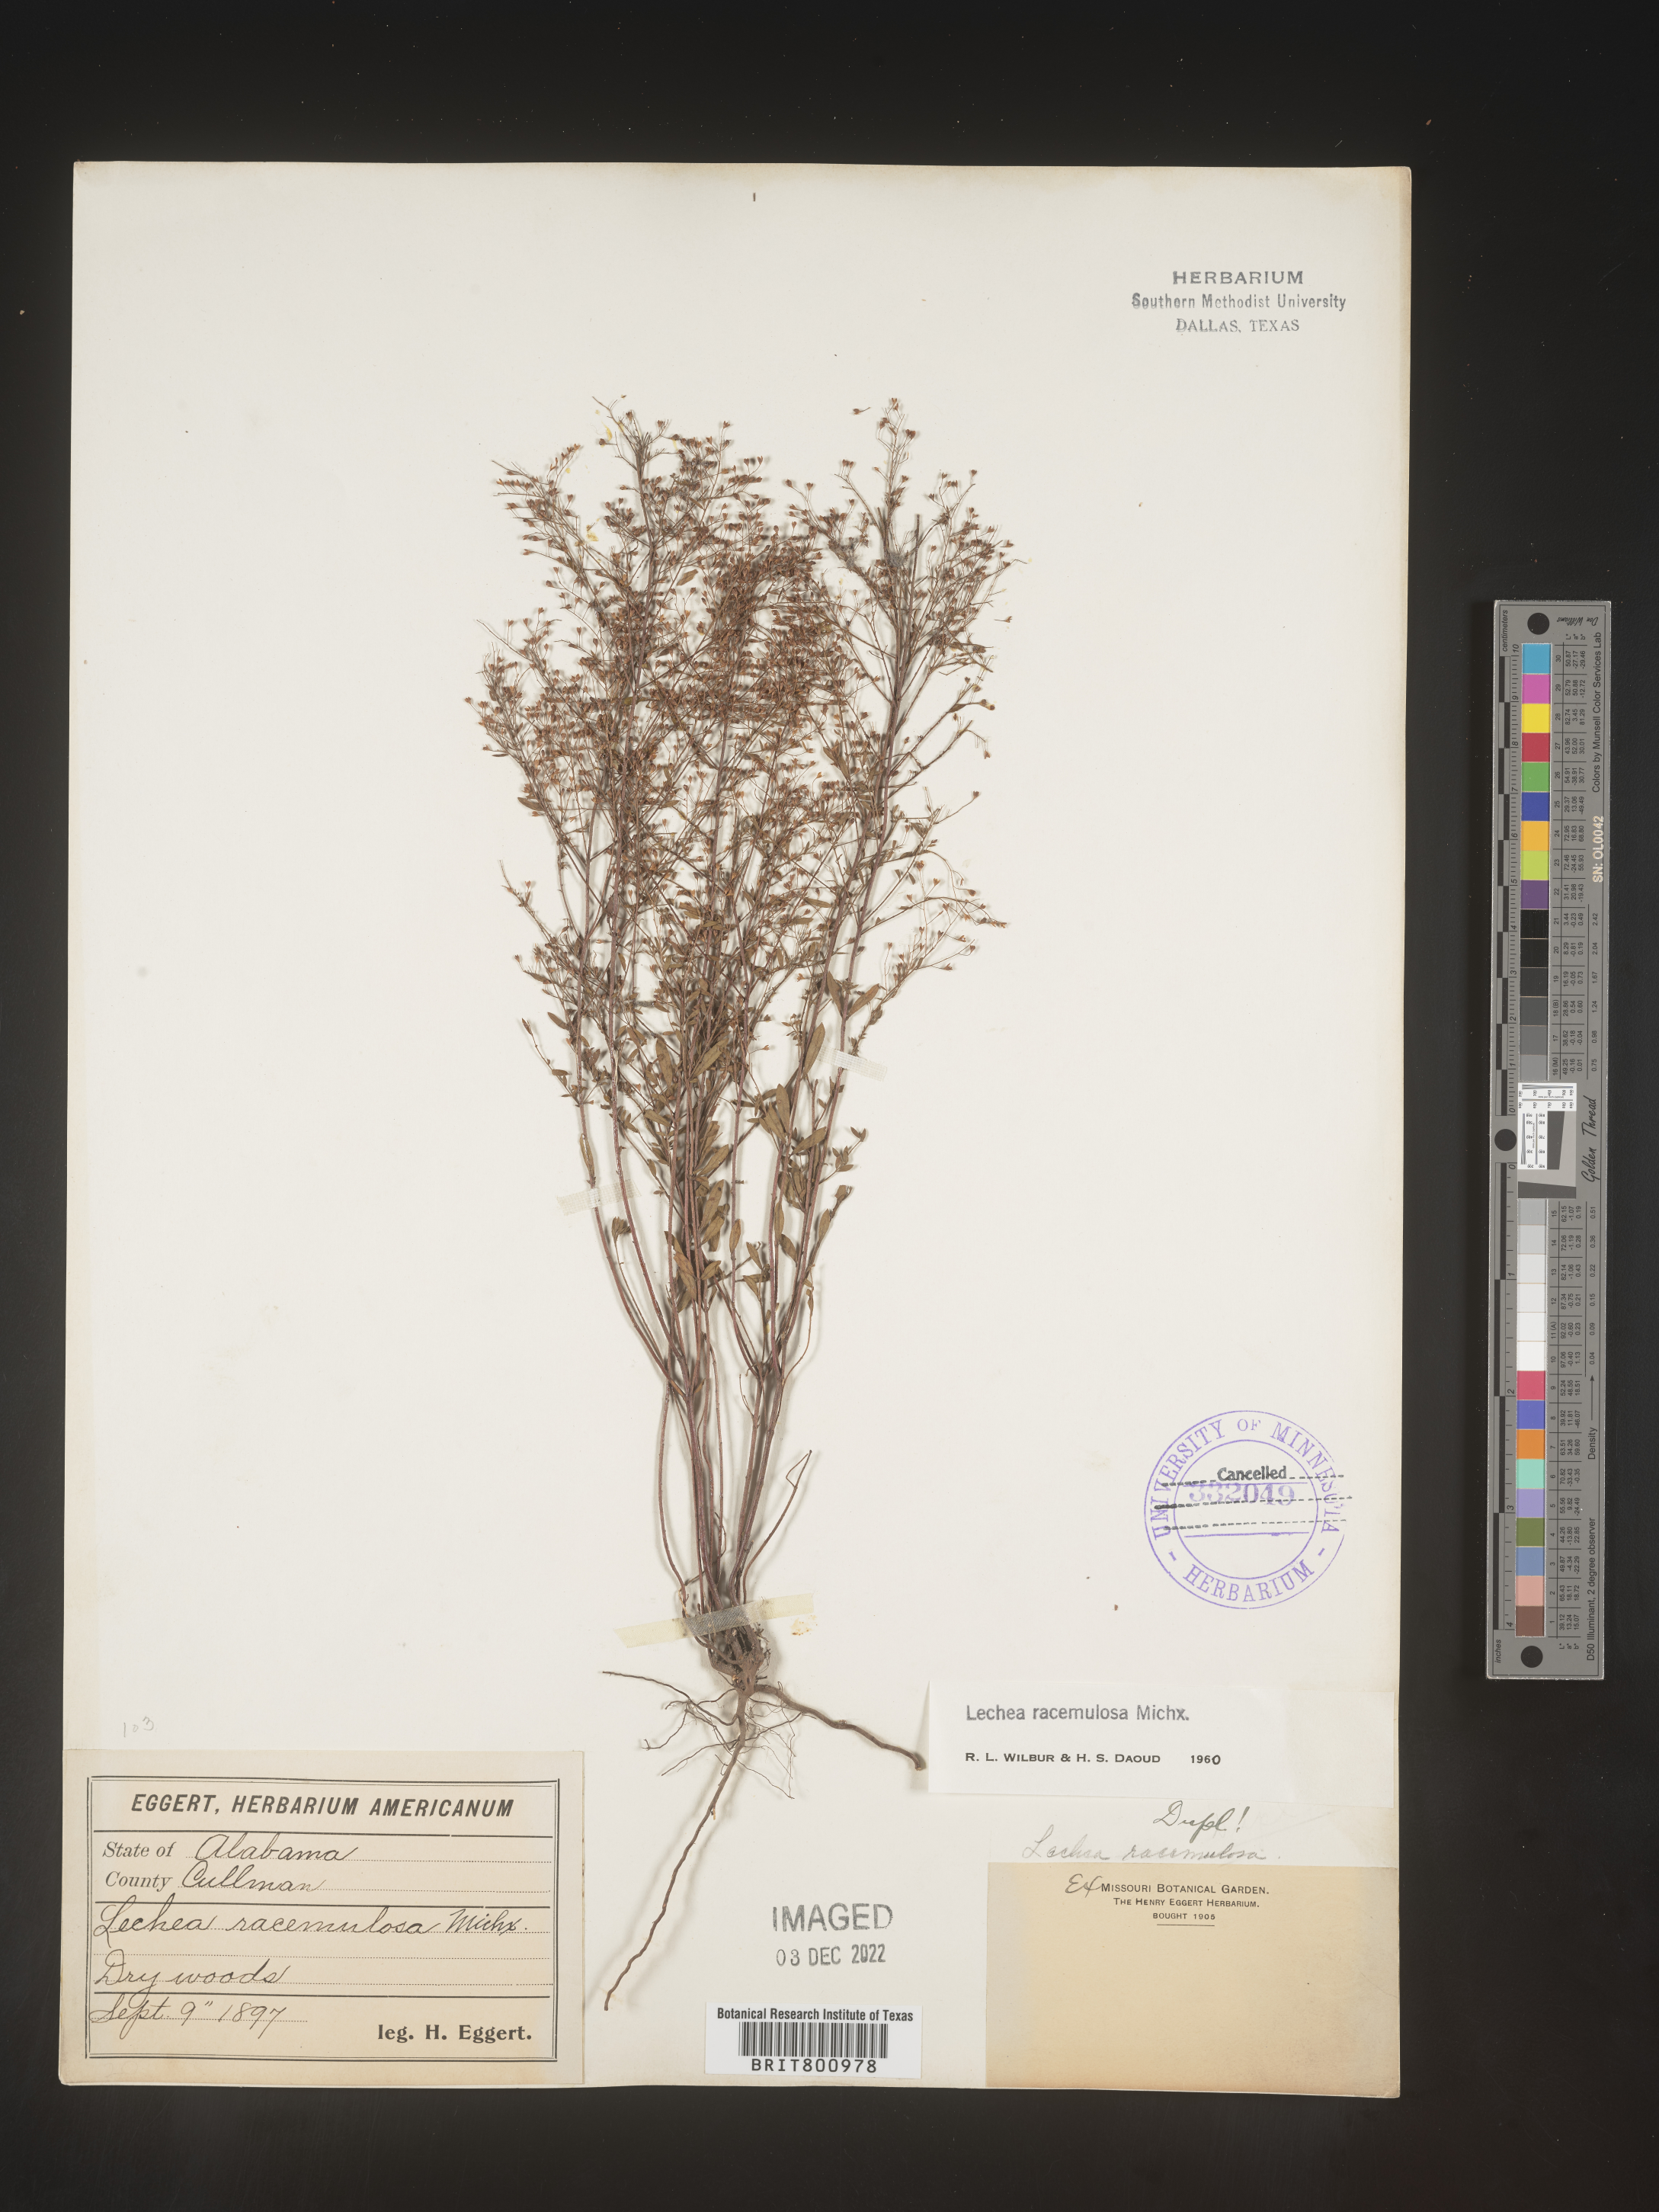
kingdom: Plantae
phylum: Tracheophyta
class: Magnoliopsida
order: Malvales
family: Cistaceae
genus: Lechea
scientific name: Lechea racemulosa
